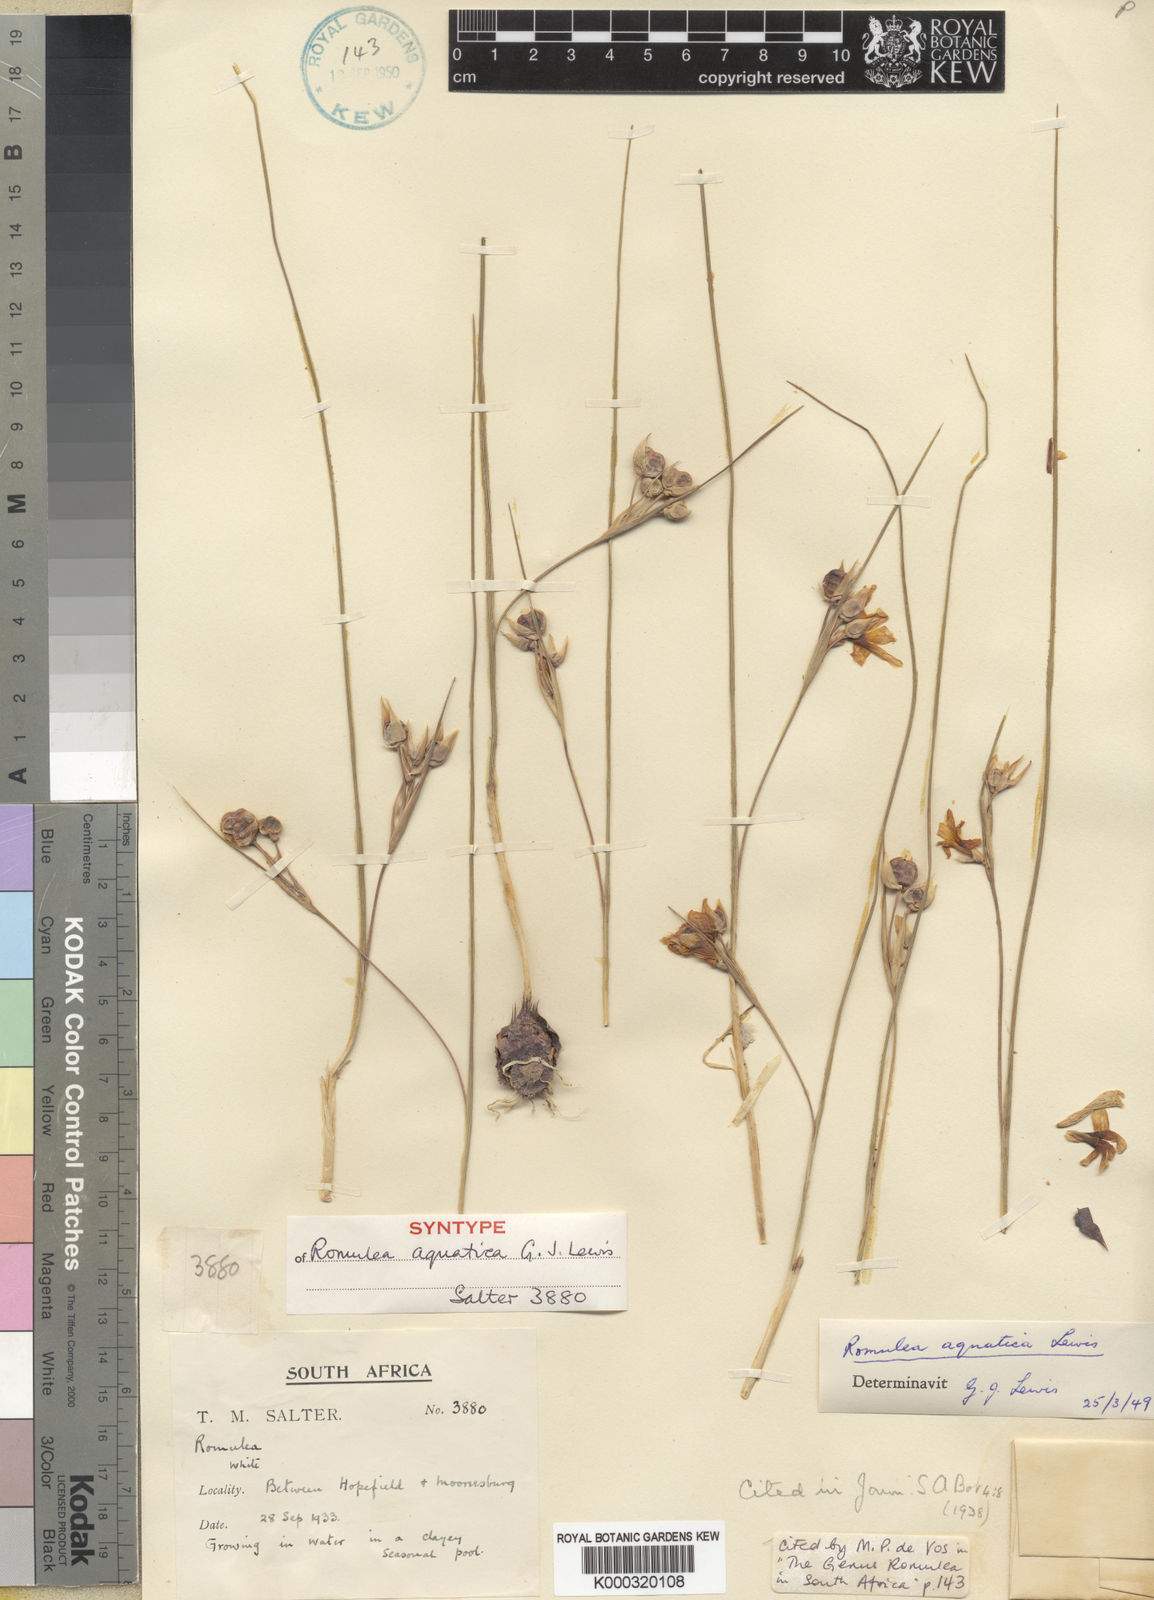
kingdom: Plantae
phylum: Tracheophyta
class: Liliopsida
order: Asparagales
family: Iridaceae
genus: Romulea
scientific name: Romulea aquatica
